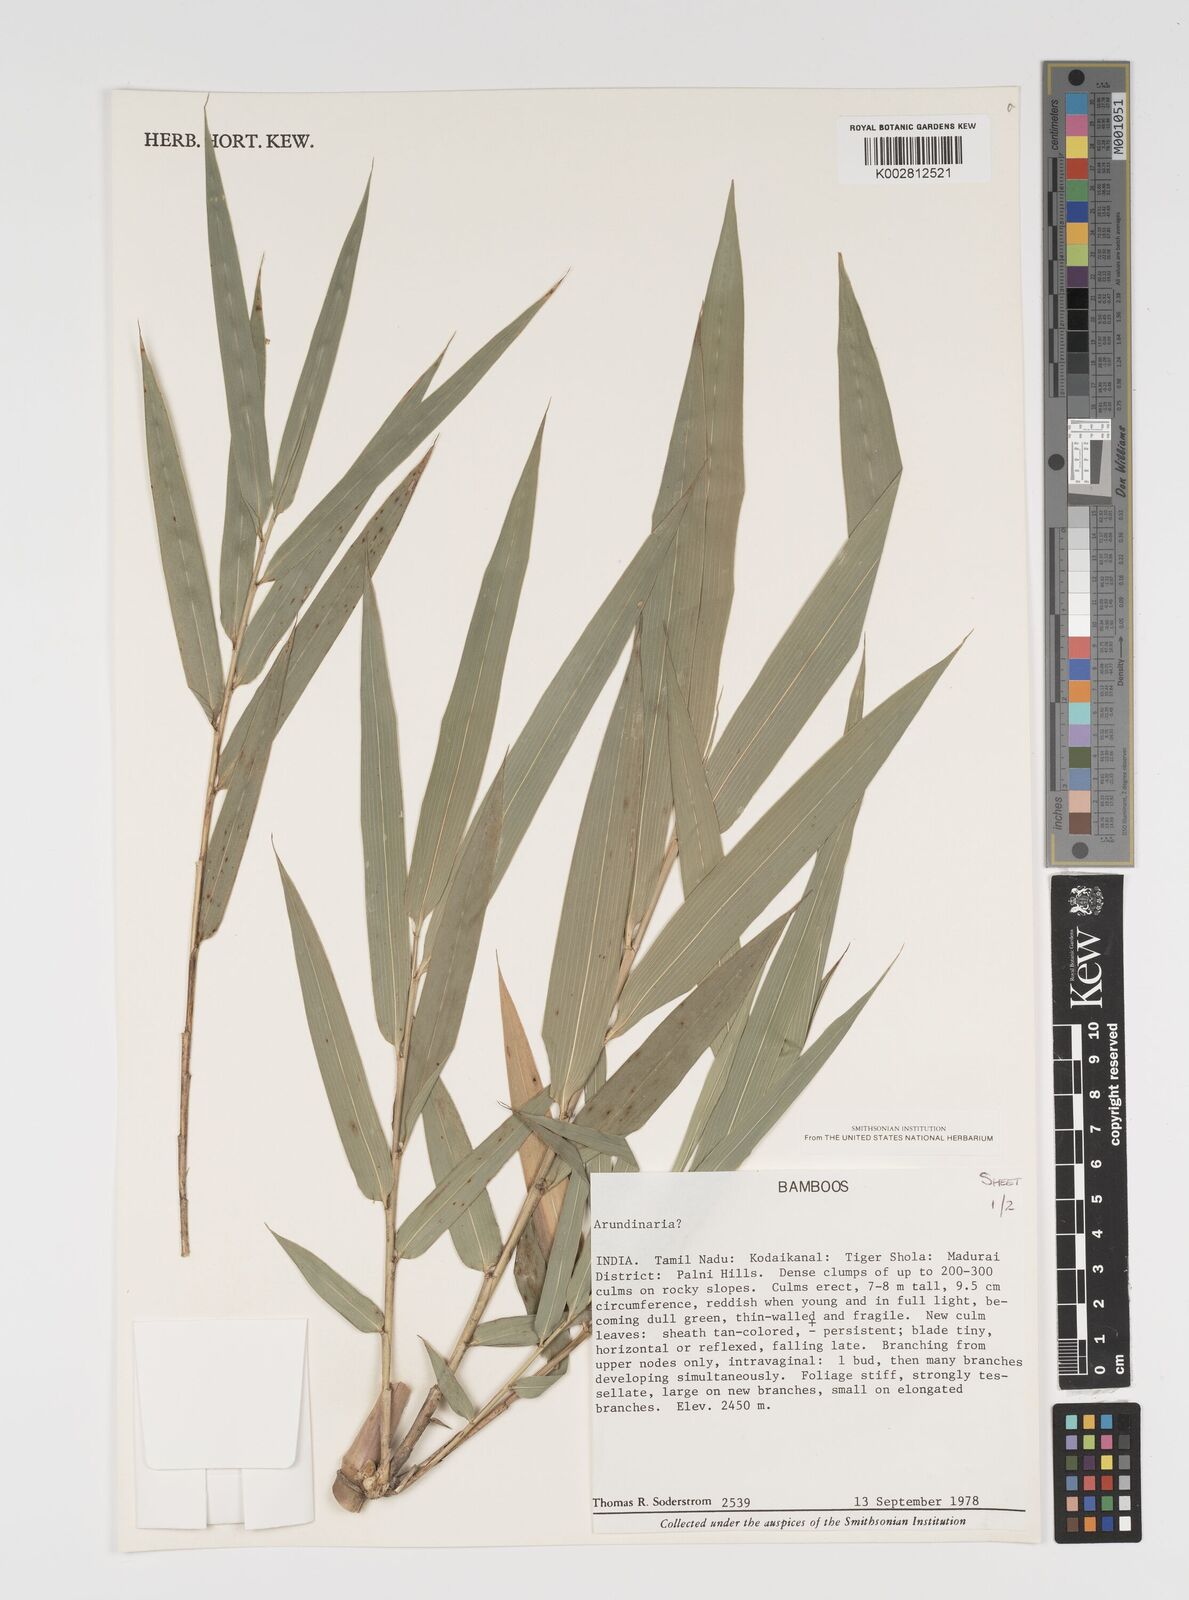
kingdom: Plantae
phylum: Tracheophyta
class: Liliopsida
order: Poales
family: Poaceae
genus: Arundinaria
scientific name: Arundinaria
